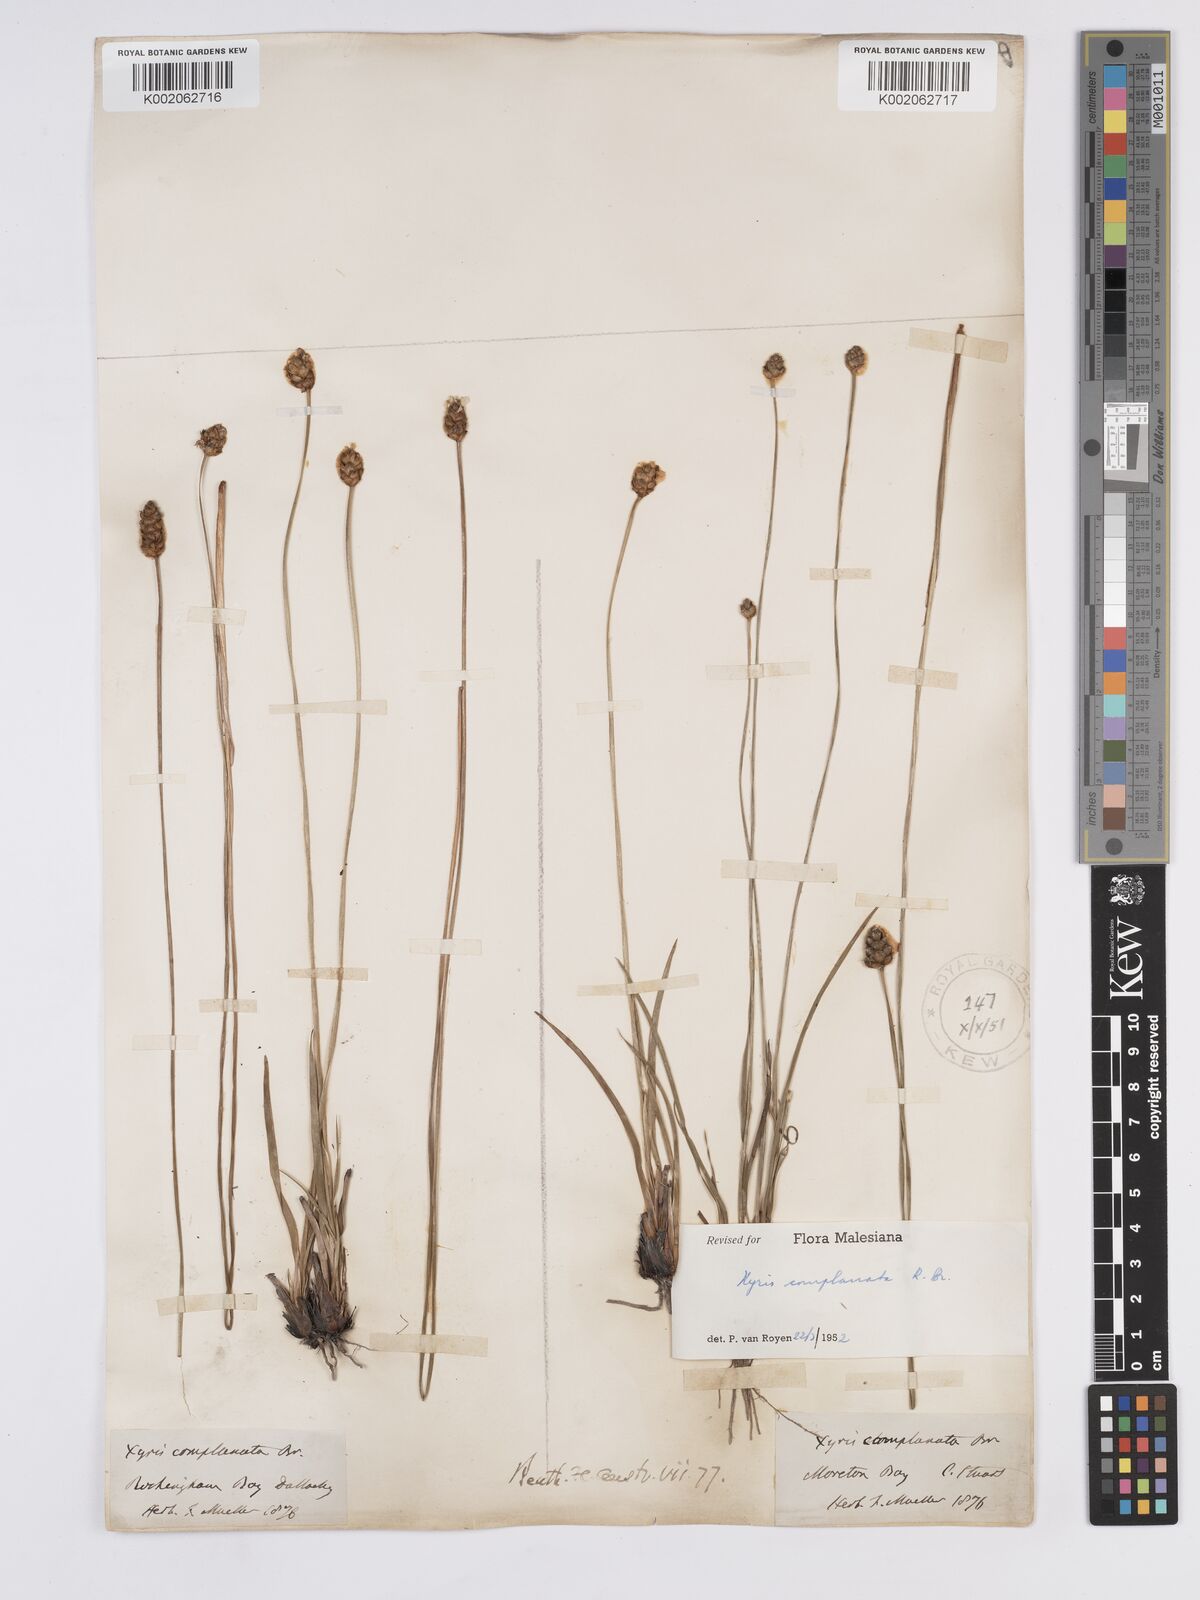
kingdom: Plantae
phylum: Tracheophyta
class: Liliopsida
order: Poales
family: Xyridaceae
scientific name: Xyridaceae
